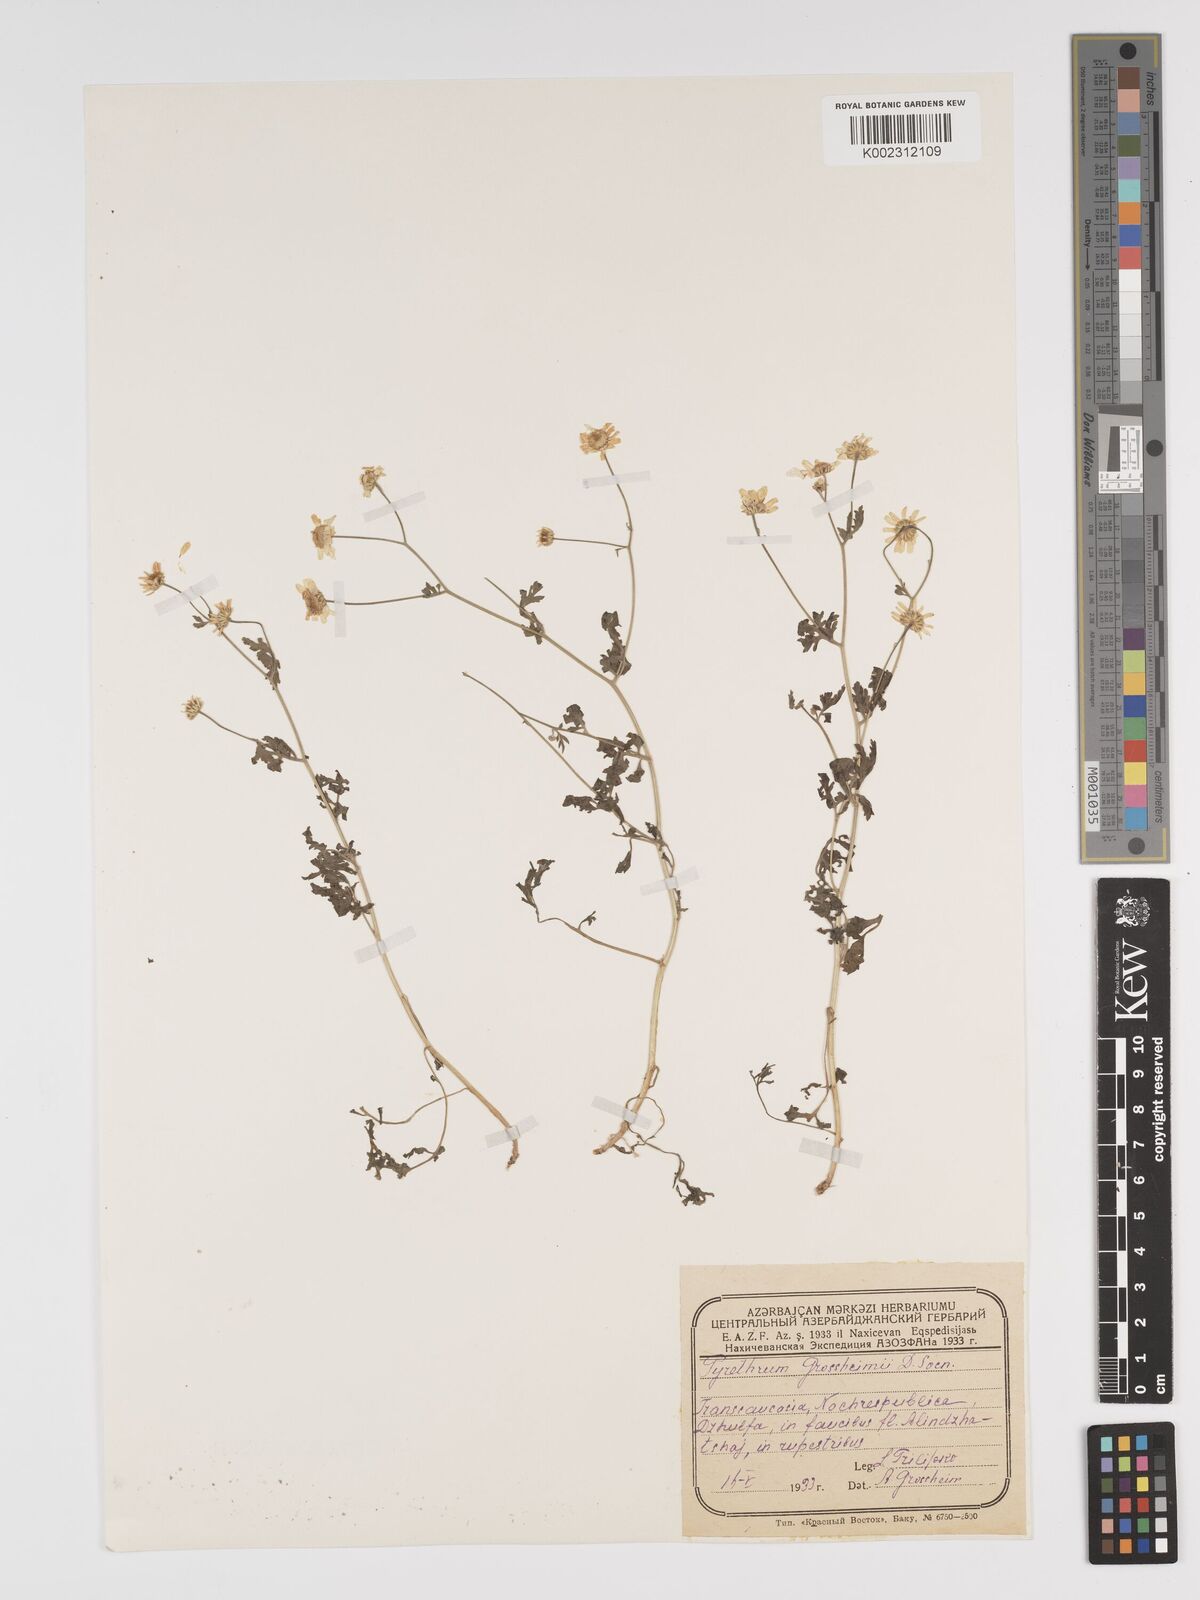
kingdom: Plantae
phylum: Tracheophyta
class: Magnoliopsida
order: Asterales
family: Asteraceae
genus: Tanacetum
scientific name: Tanacetum parthenium
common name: Feverfew
